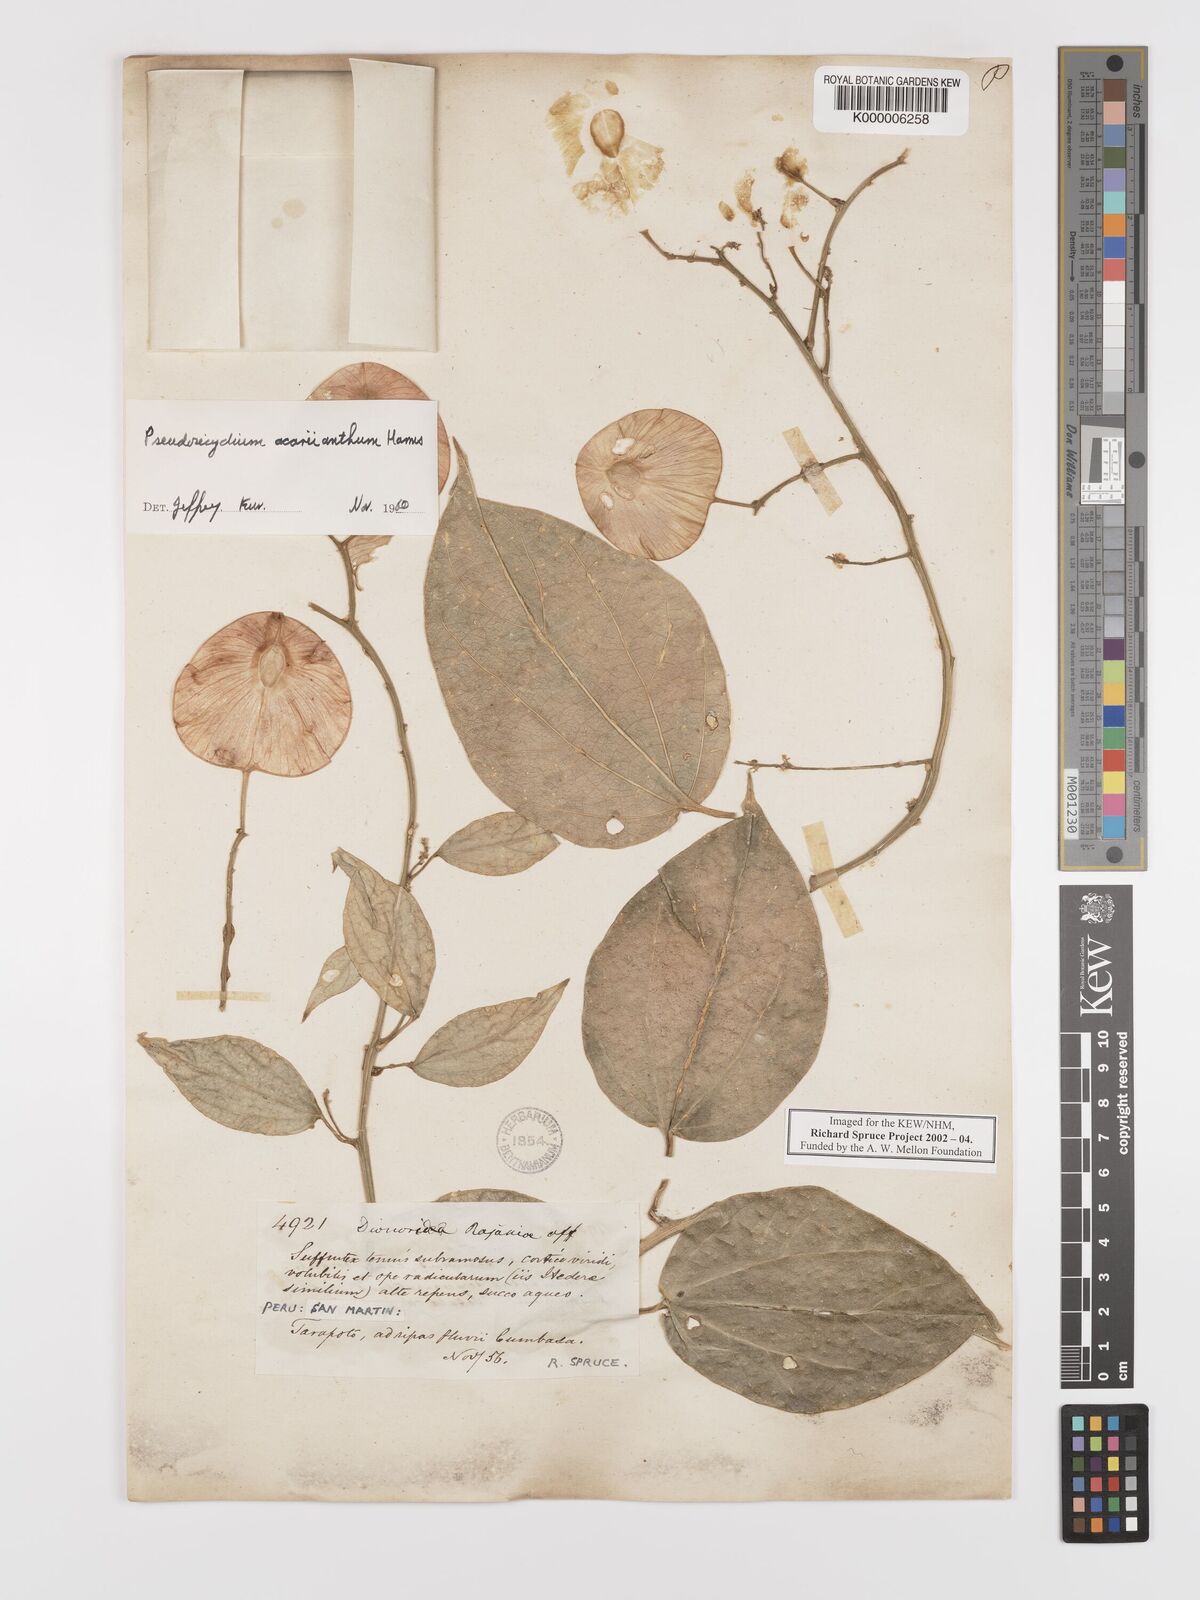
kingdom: Plantae
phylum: Tracheophyta
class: Magnoliopsida
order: Cucurbitales
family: Cucurbitaceae
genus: Pteropepon
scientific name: Pteropepon
